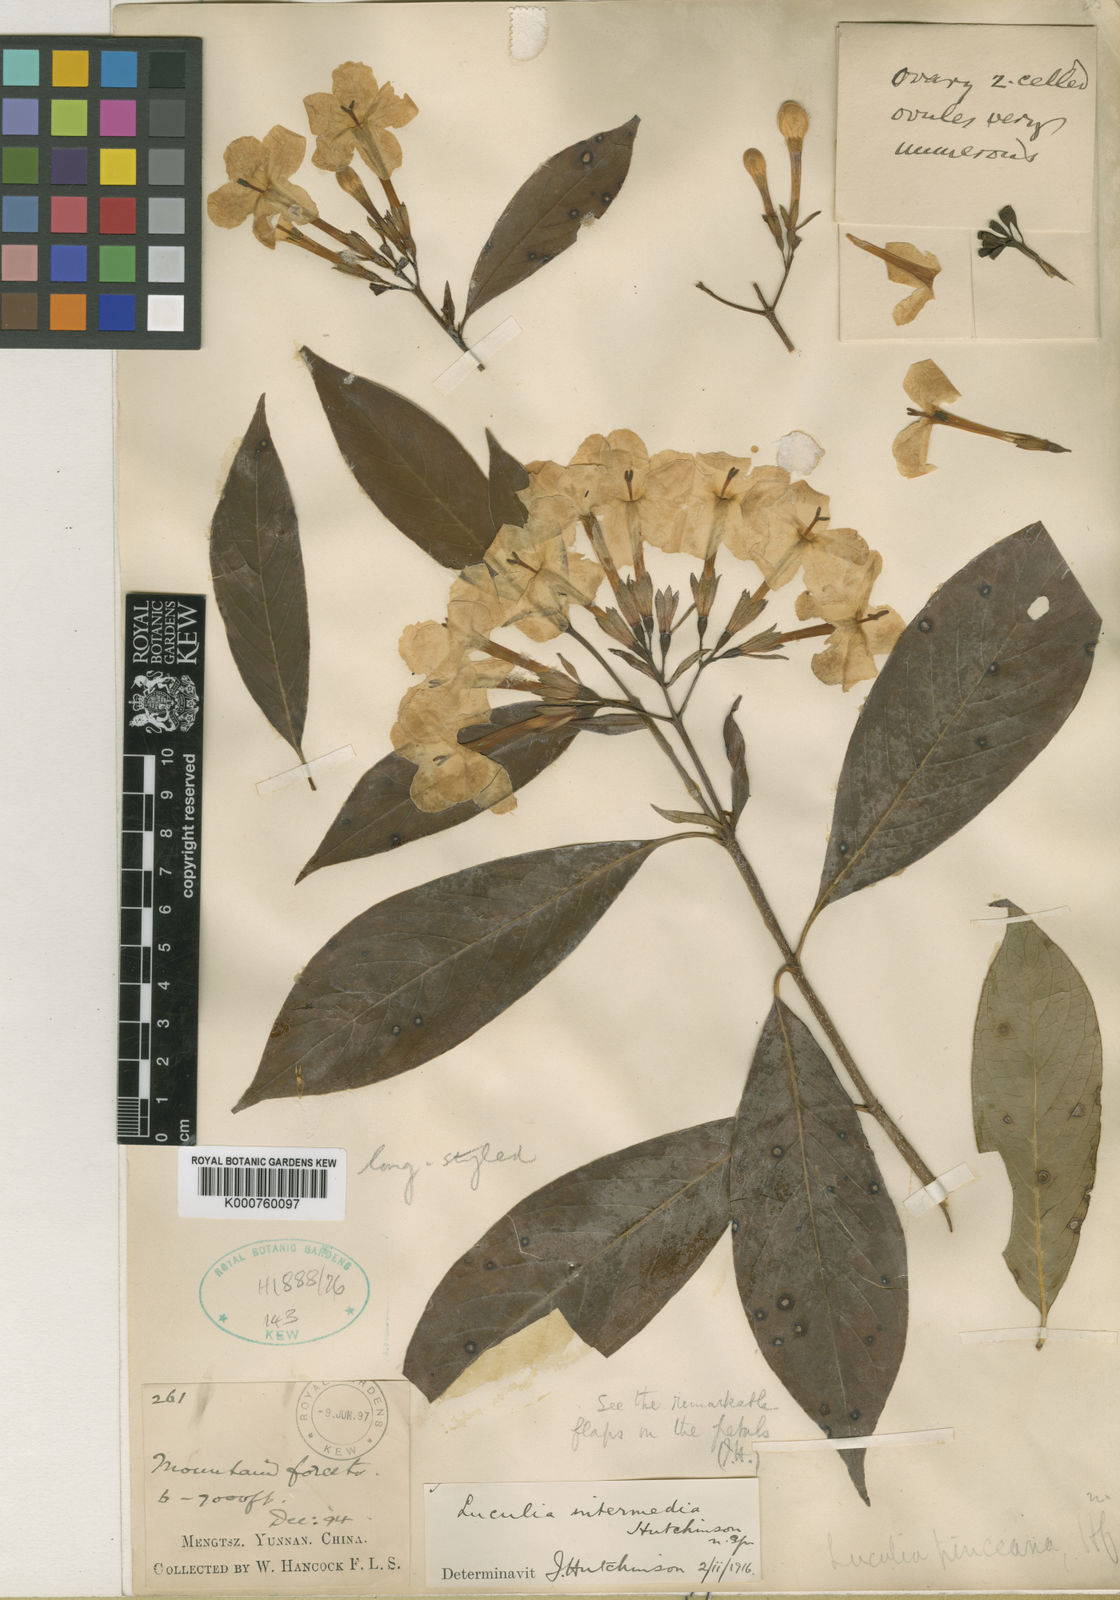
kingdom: Plantae
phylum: Tracheophyta
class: Magnoliopsida
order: Gentianales
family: Rubiaceae
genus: Luculia
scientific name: Luculia pinceana
